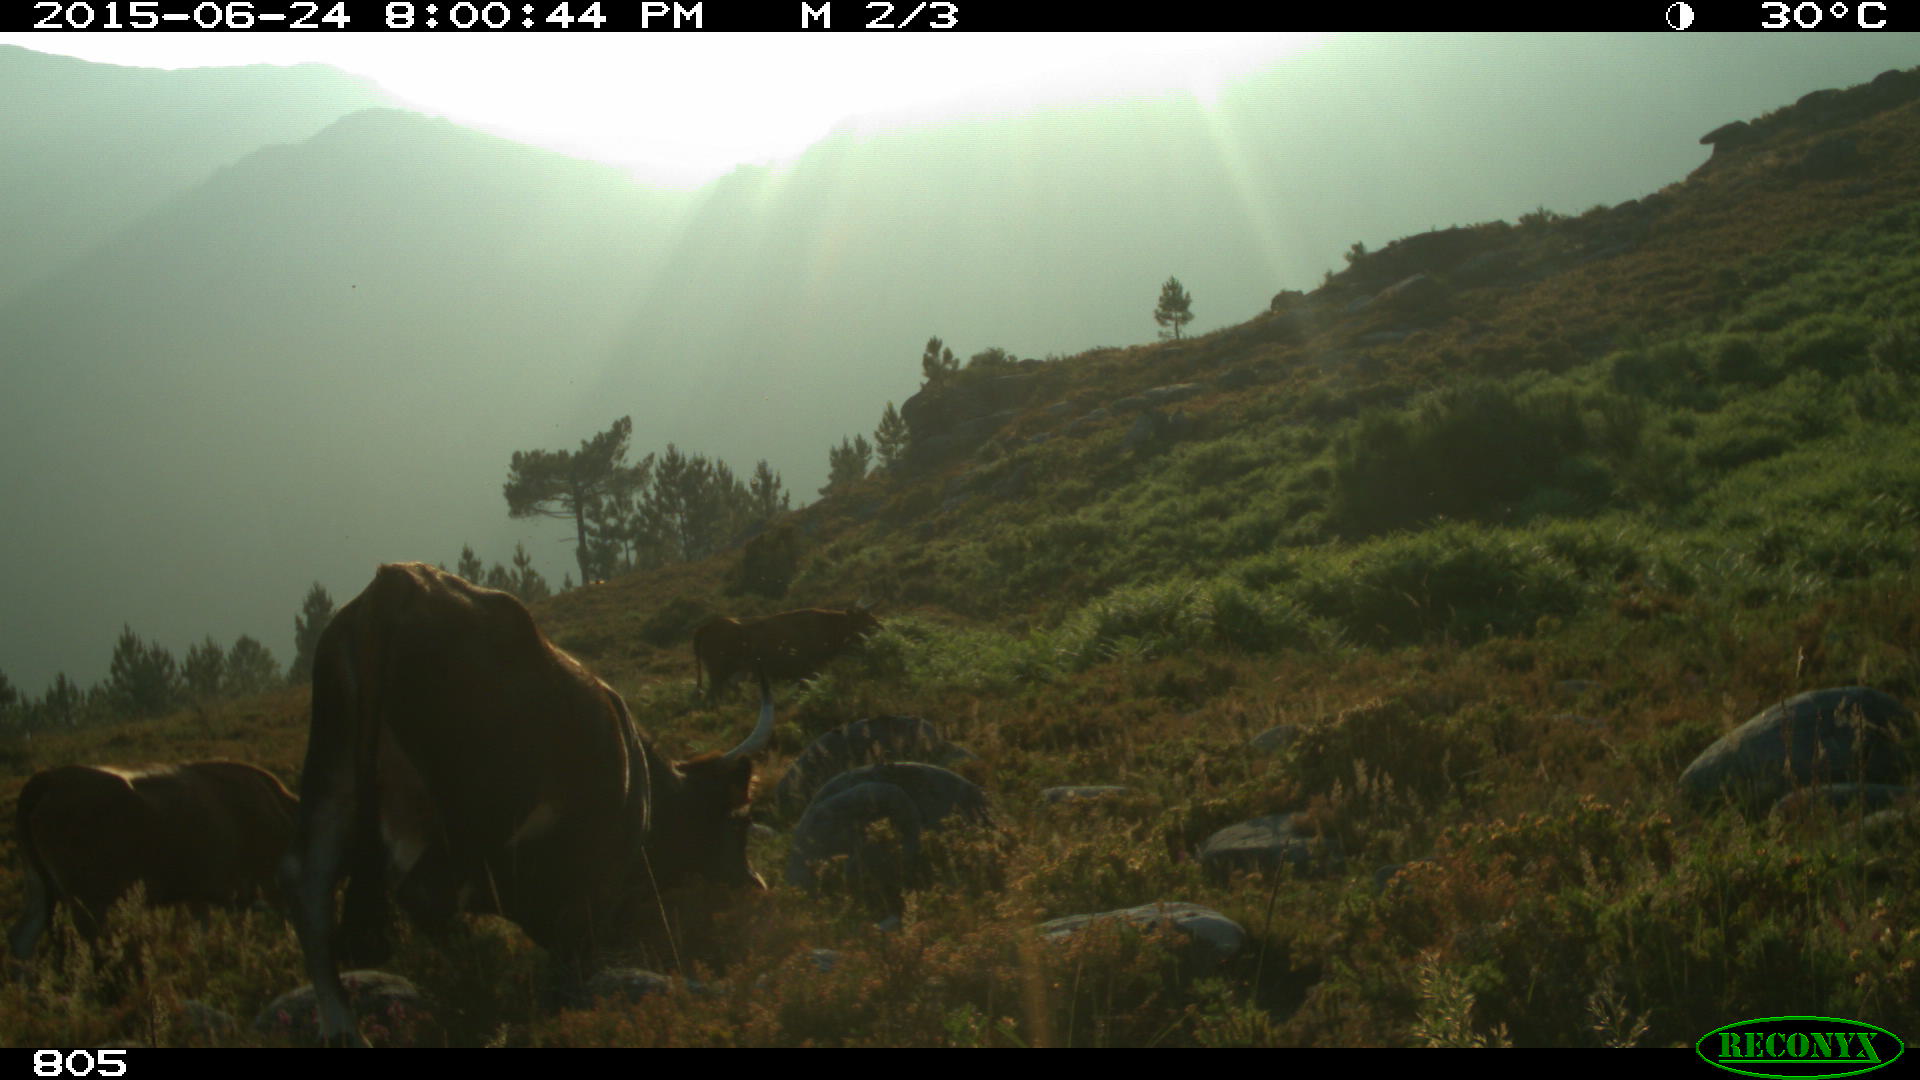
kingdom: Animalia
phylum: Chordata
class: Mammalia
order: Artiodactyla
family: Bovidae
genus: Bos
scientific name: Bos taurus
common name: Domesticated cattle
